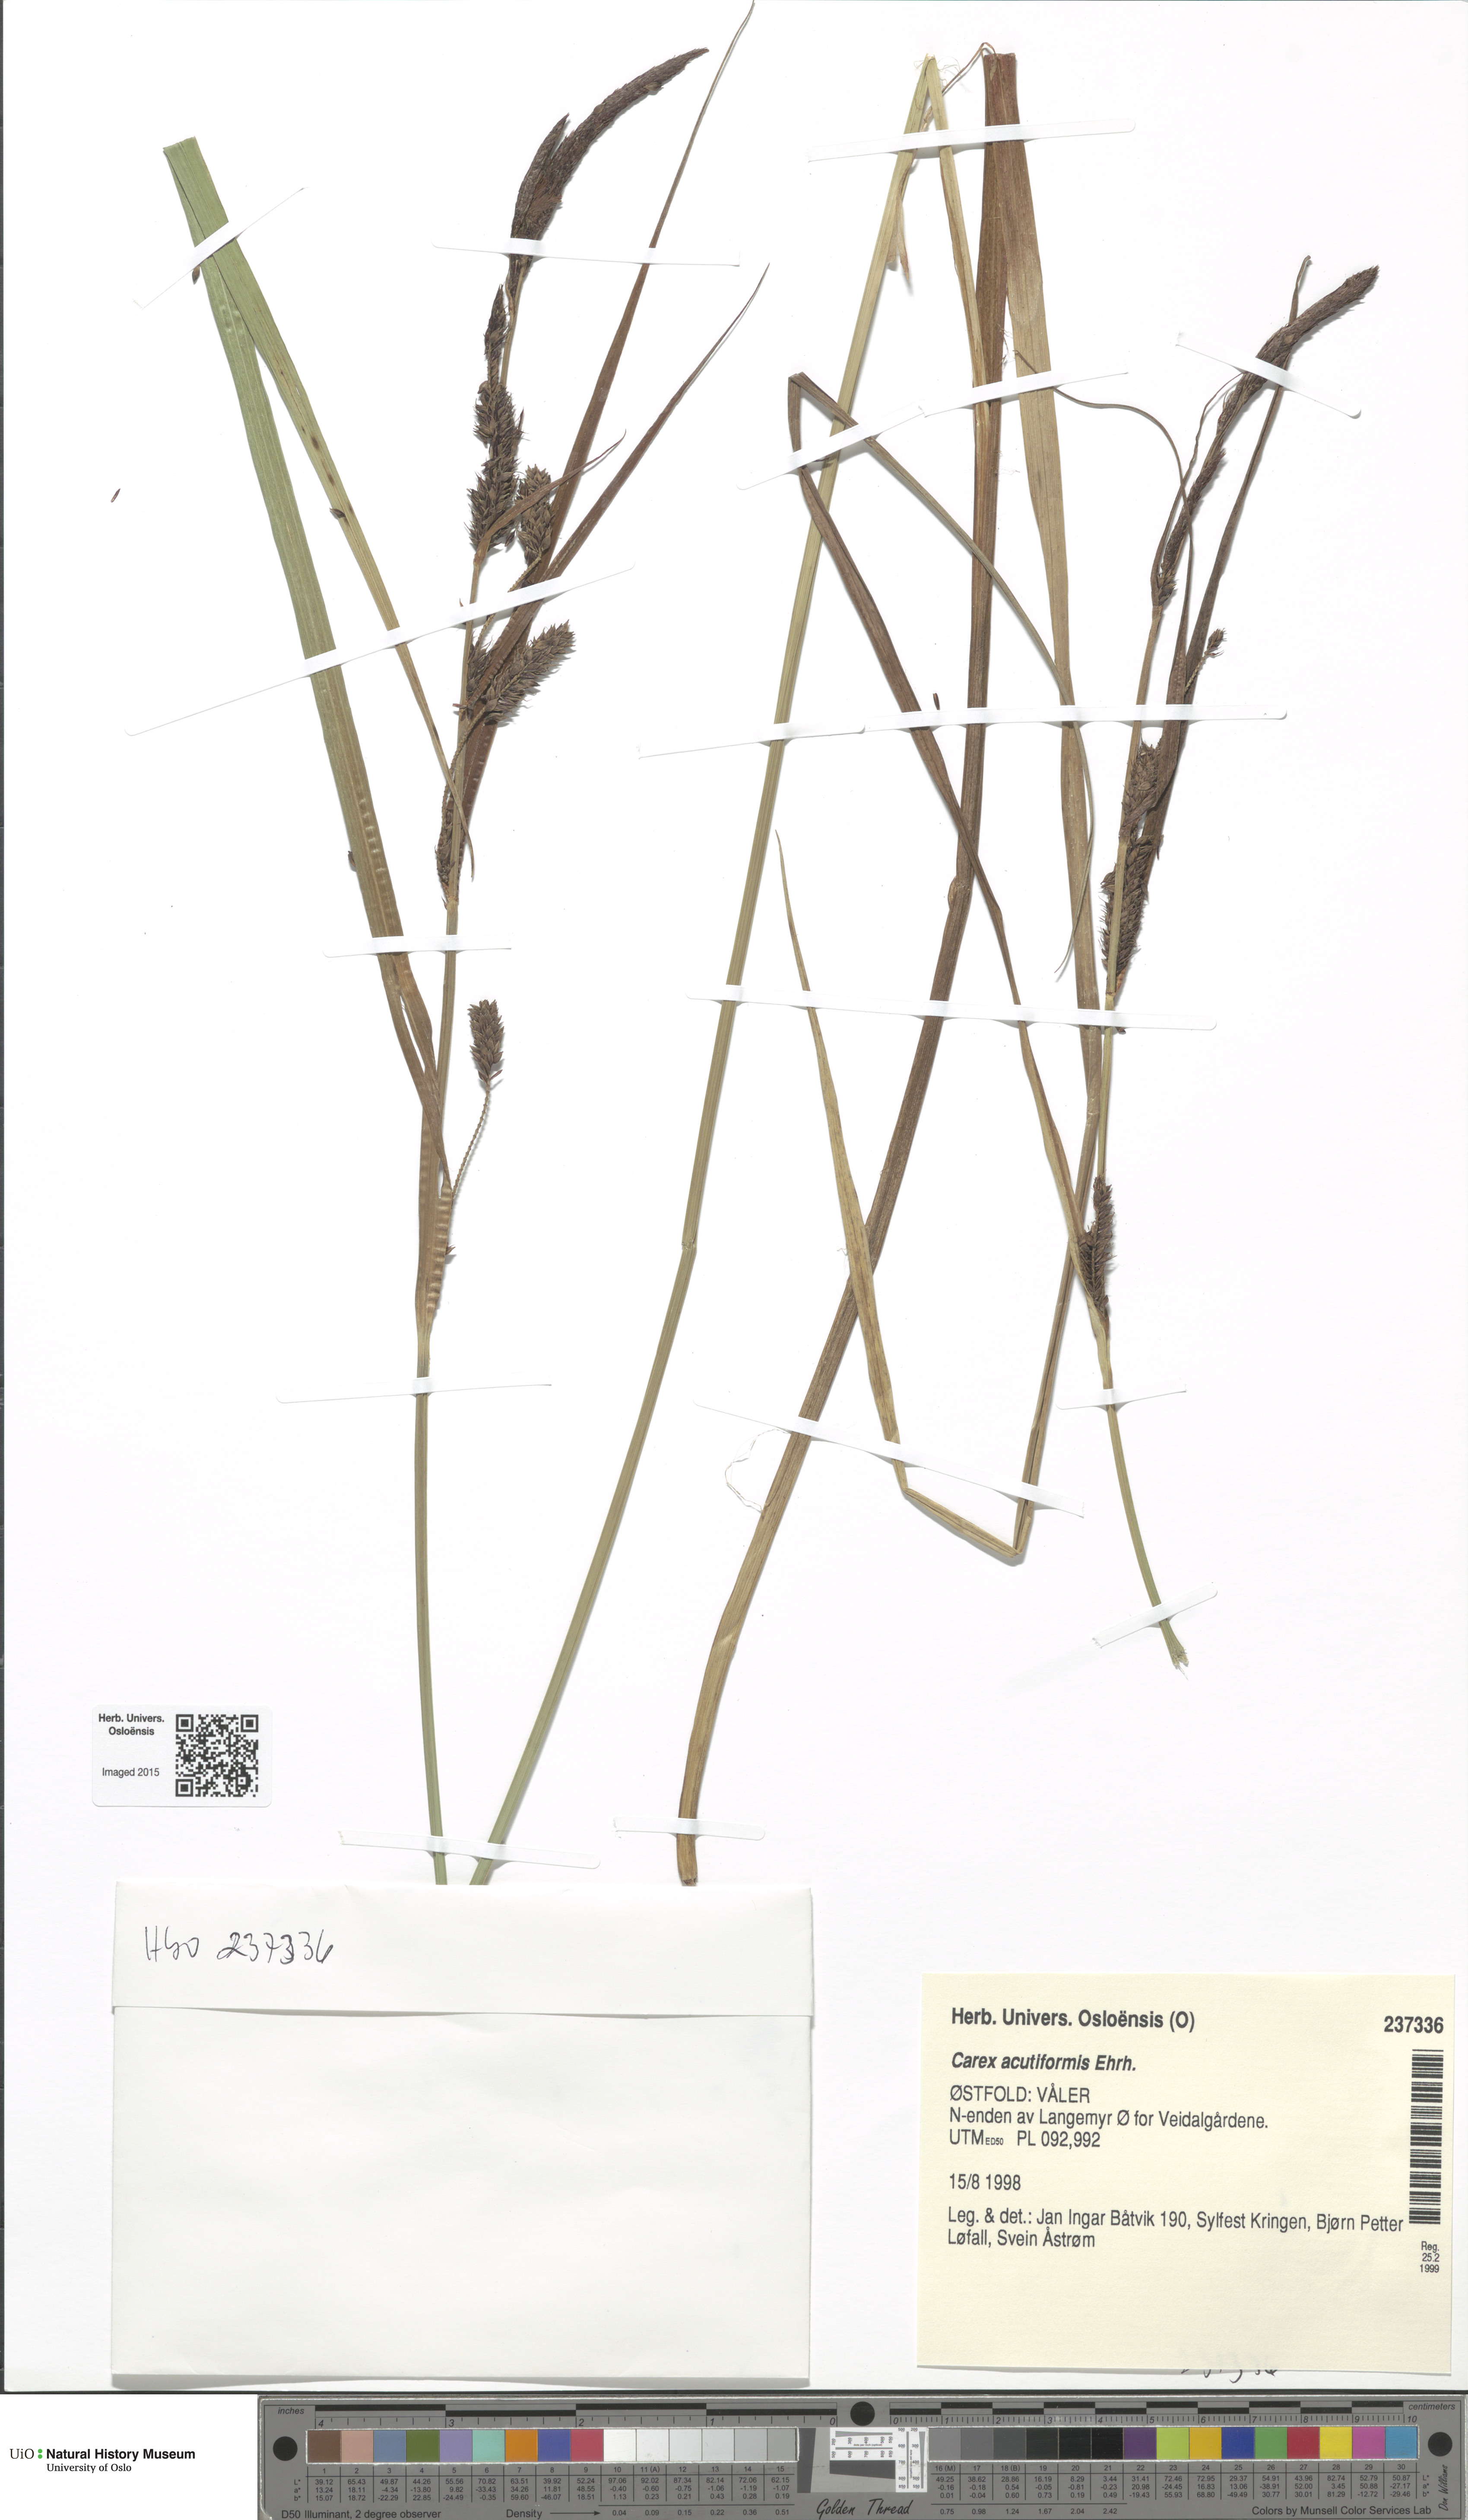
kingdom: Plantae
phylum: Tracheophyta
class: Liliopsida
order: Poales
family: Cyperaceae
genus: Carex
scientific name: Carex acutiformis
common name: Lesser pond-sedge
